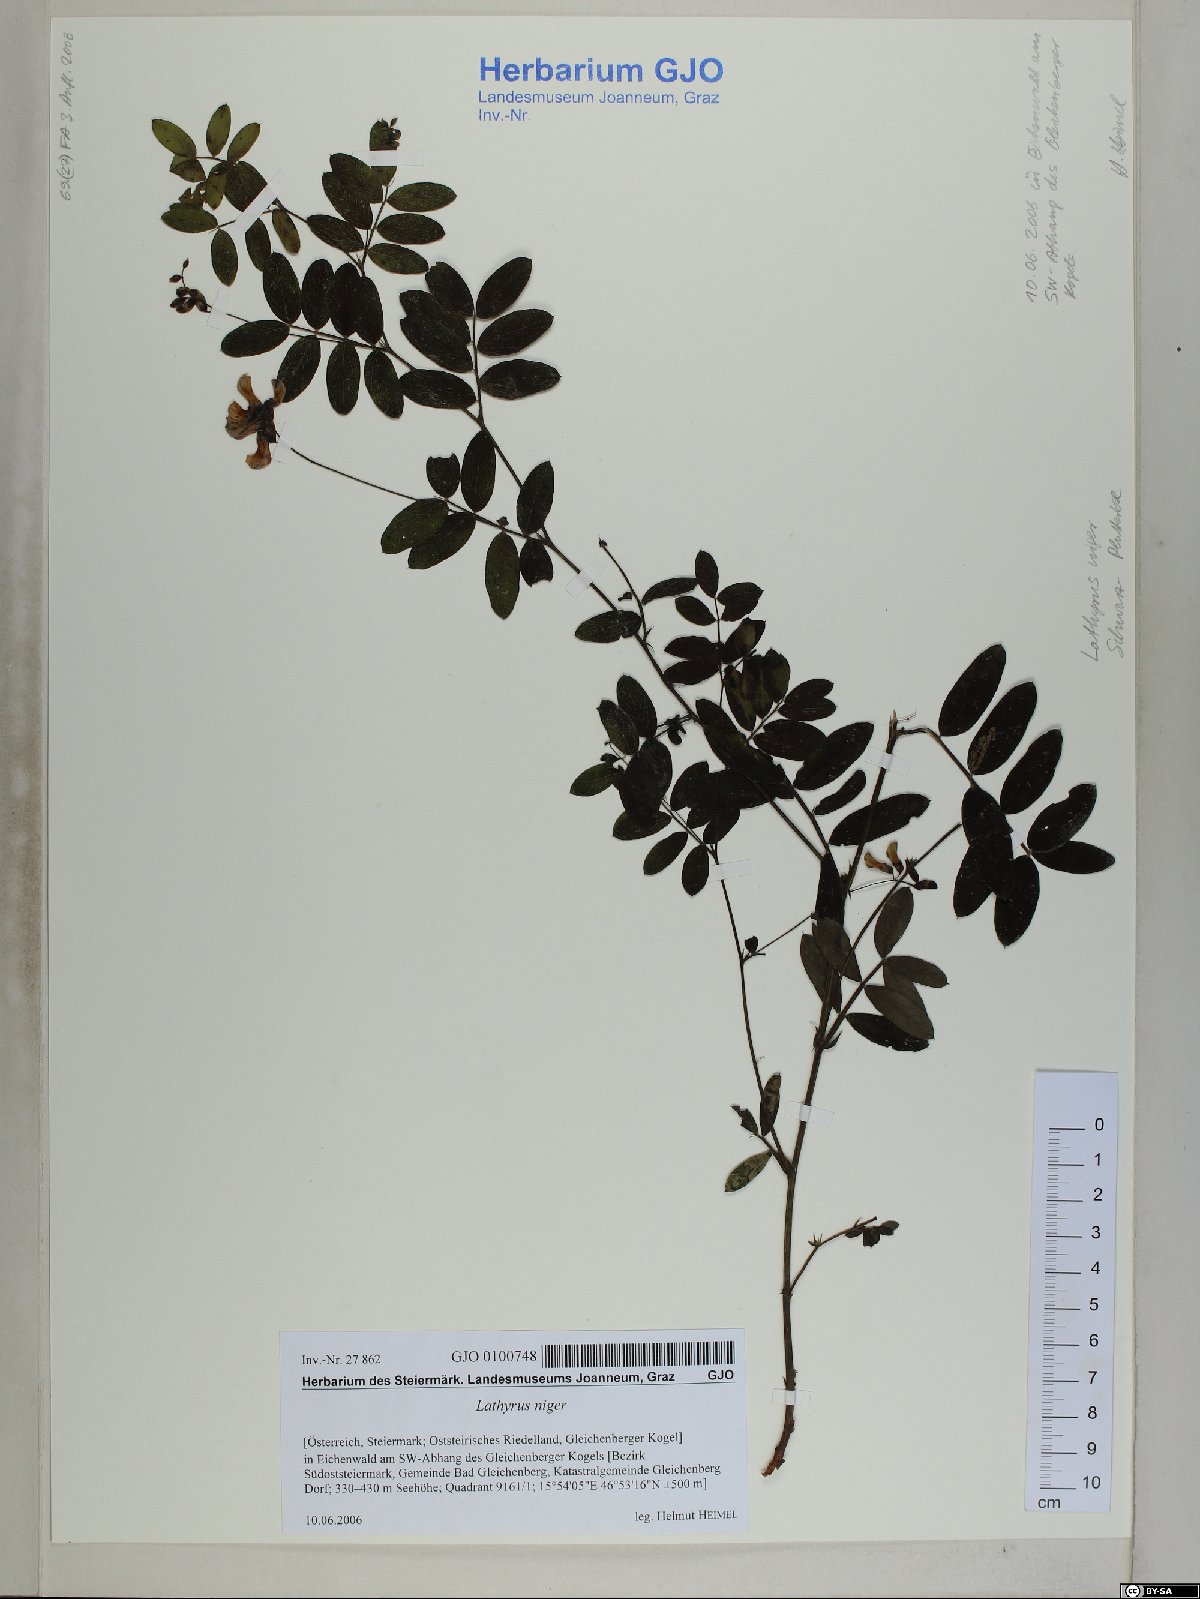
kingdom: Plantae
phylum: Tracheophyta
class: Magnoliopsida
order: Fabales
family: Fabaceae
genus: Lathyrus
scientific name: Lathyrus niger
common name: Black pea
